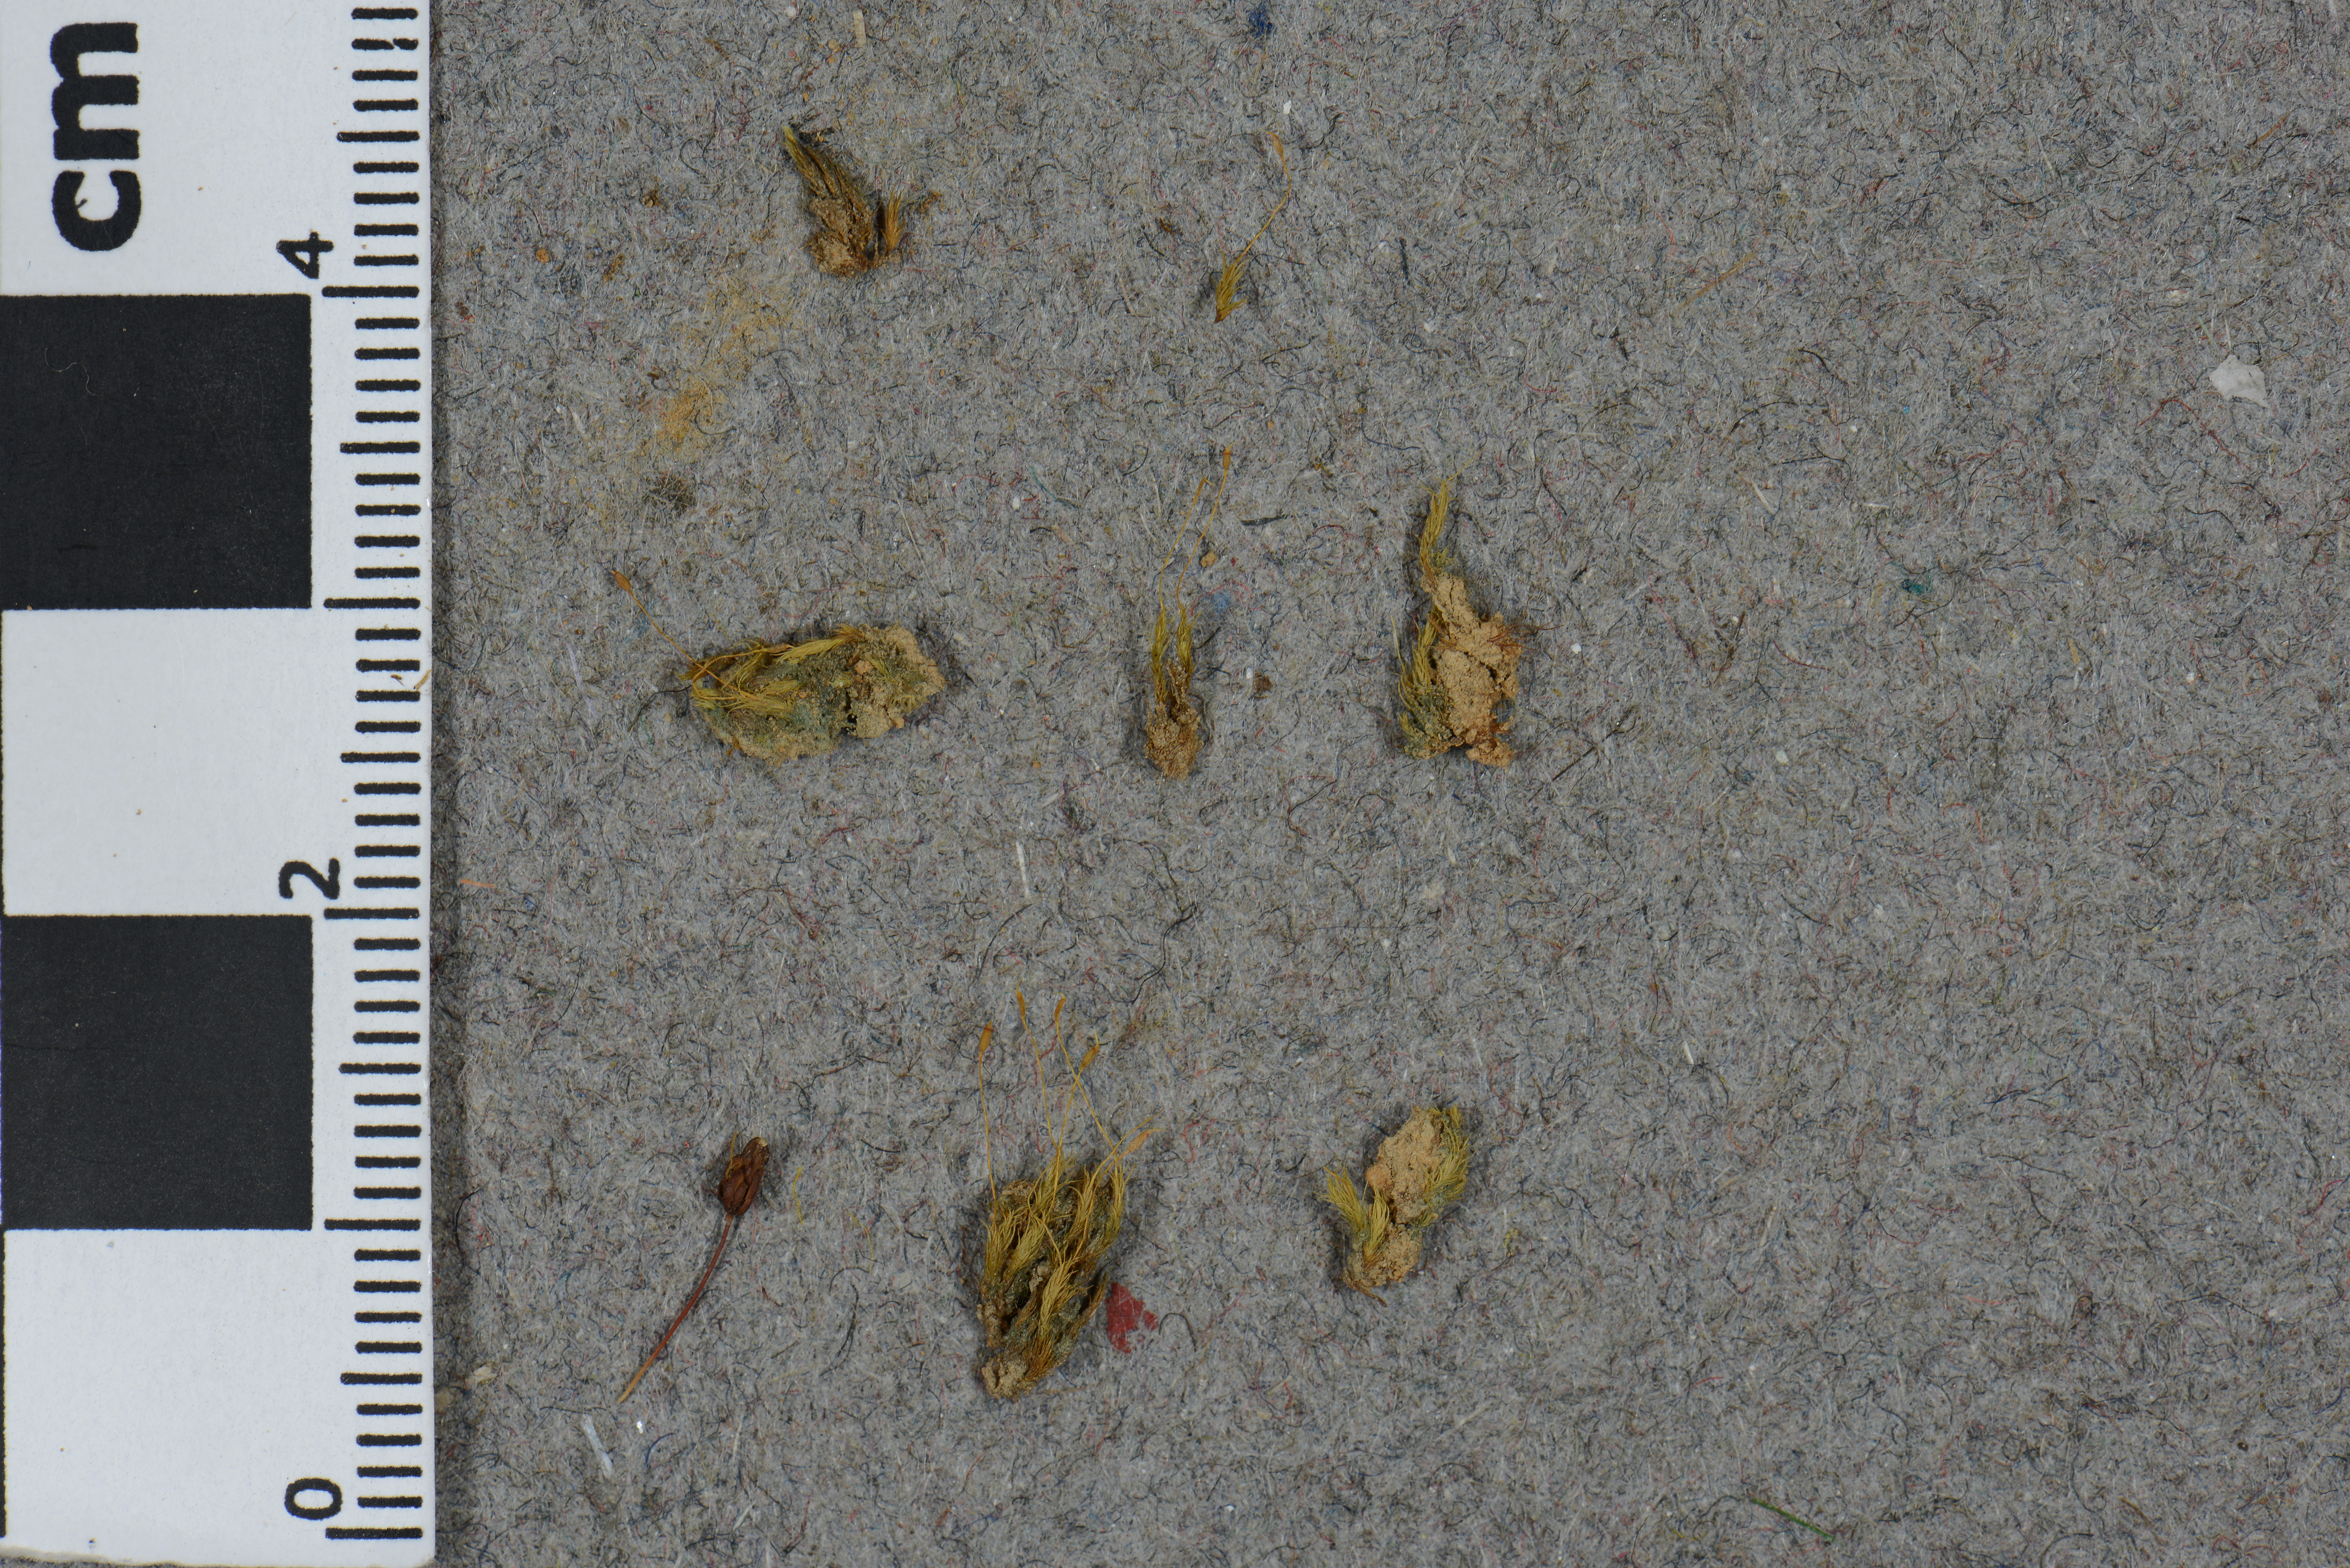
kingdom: Plantae
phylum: Bryophyta
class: Bryopsida
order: Dicranales
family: Dicranellaceae
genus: Dicranella
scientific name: Dicranella hilariana
